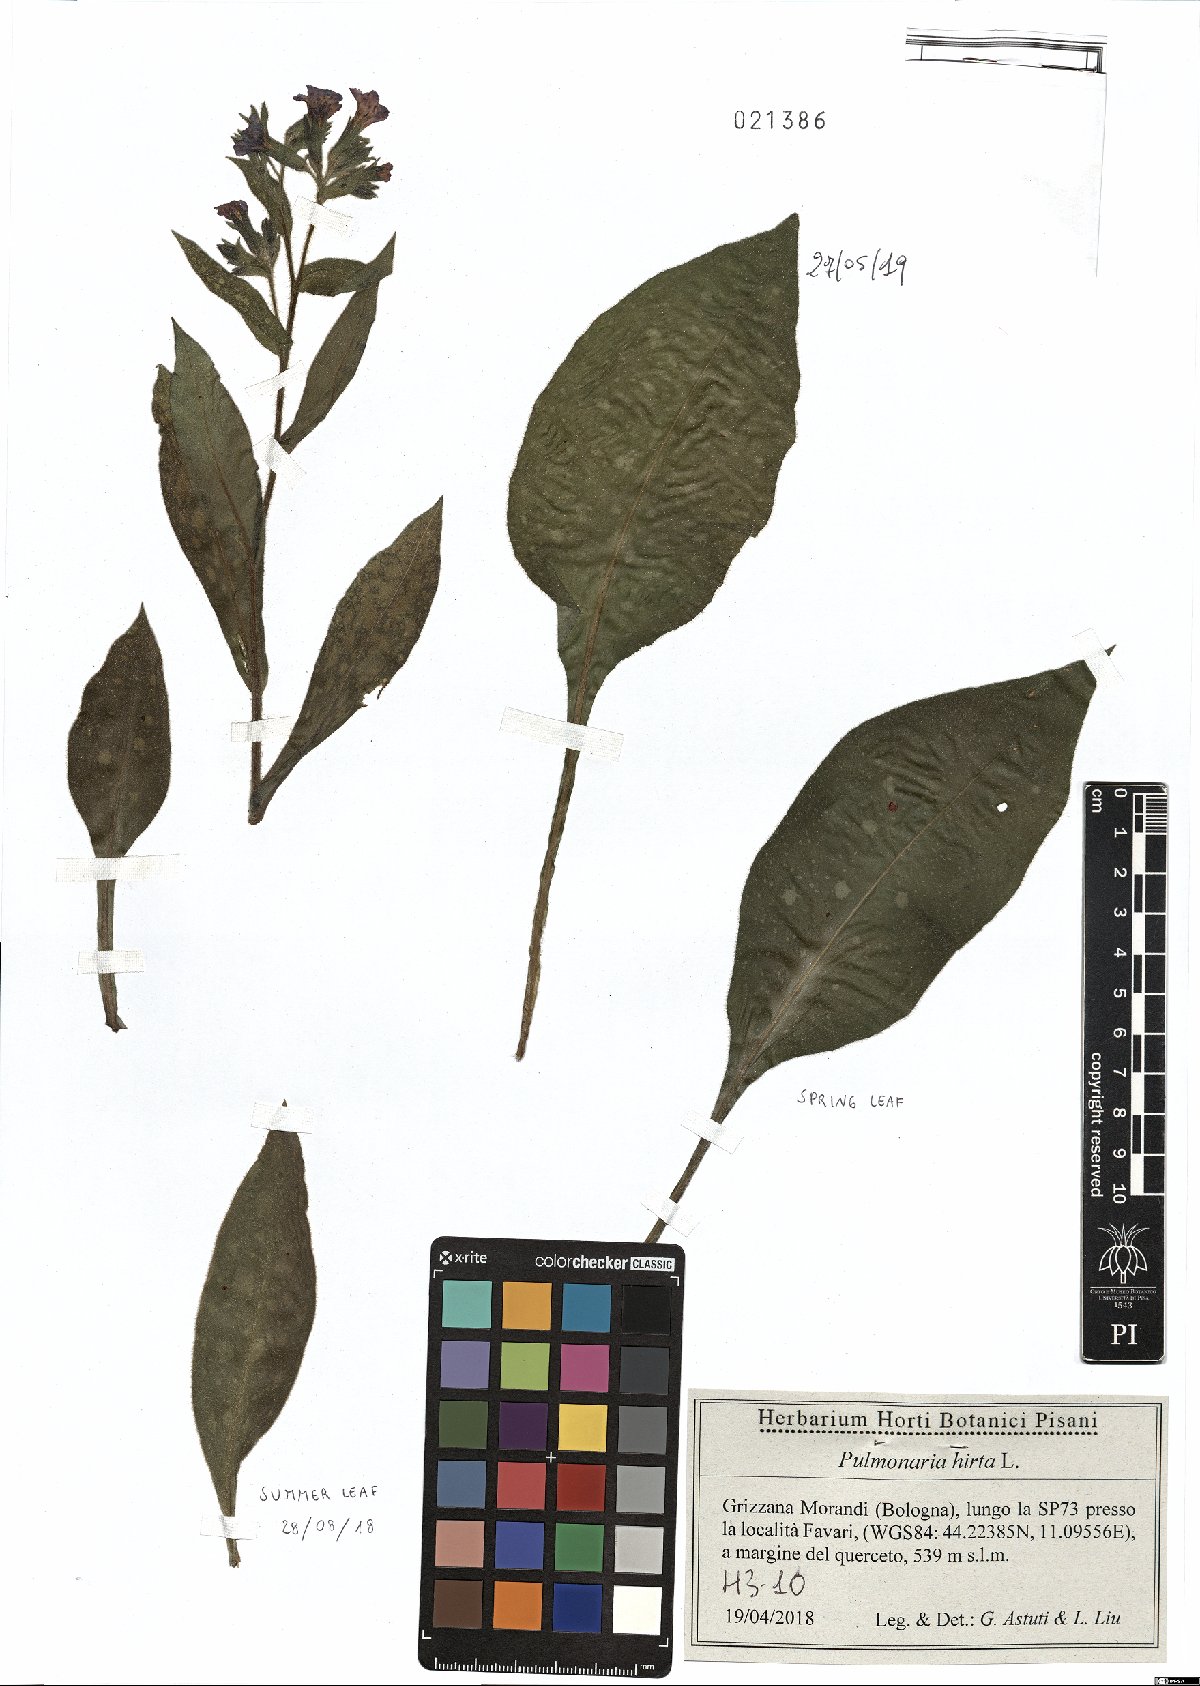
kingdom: Plantae
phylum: Tracheophyta
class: Magnoliopsida
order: Boraginales
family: Boraginaceae
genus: Pulmonaria
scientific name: Pulmonaria hirta
